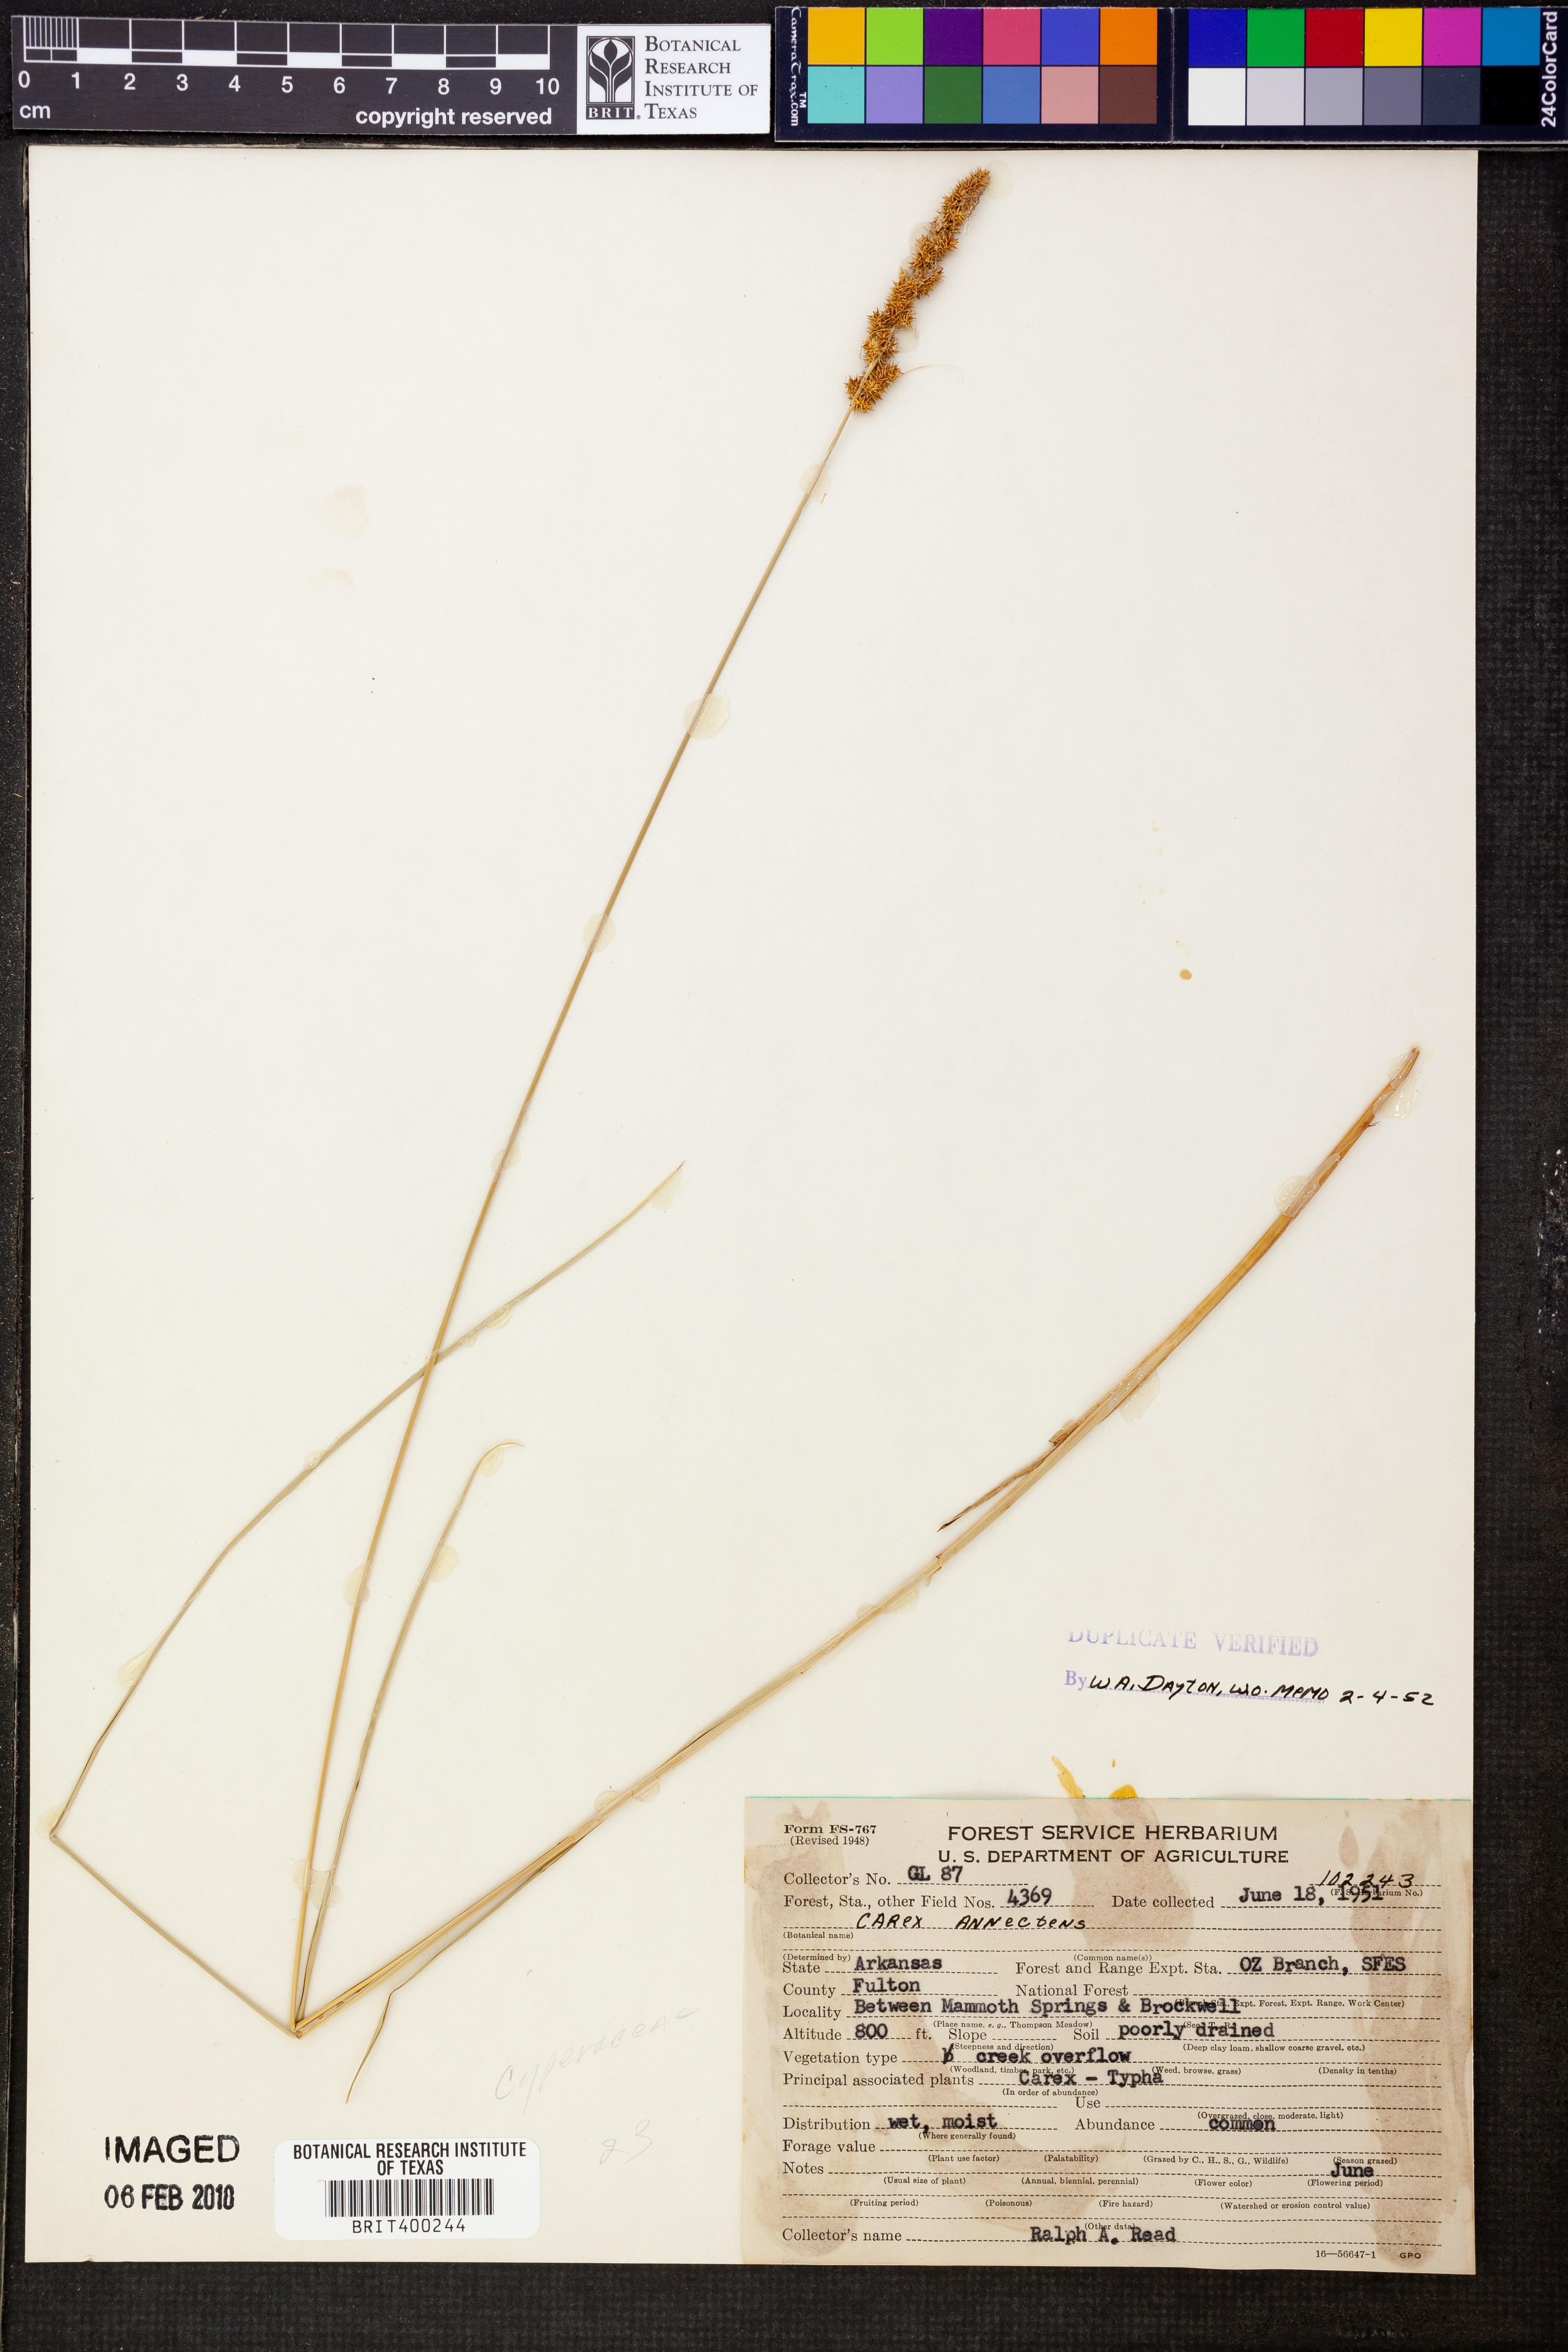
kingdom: Plantae
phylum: Tracheophyta
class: Liliopsida
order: Poales
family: Cyperaceae
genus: Carex
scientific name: Carex annectens
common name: Large fox sedge
